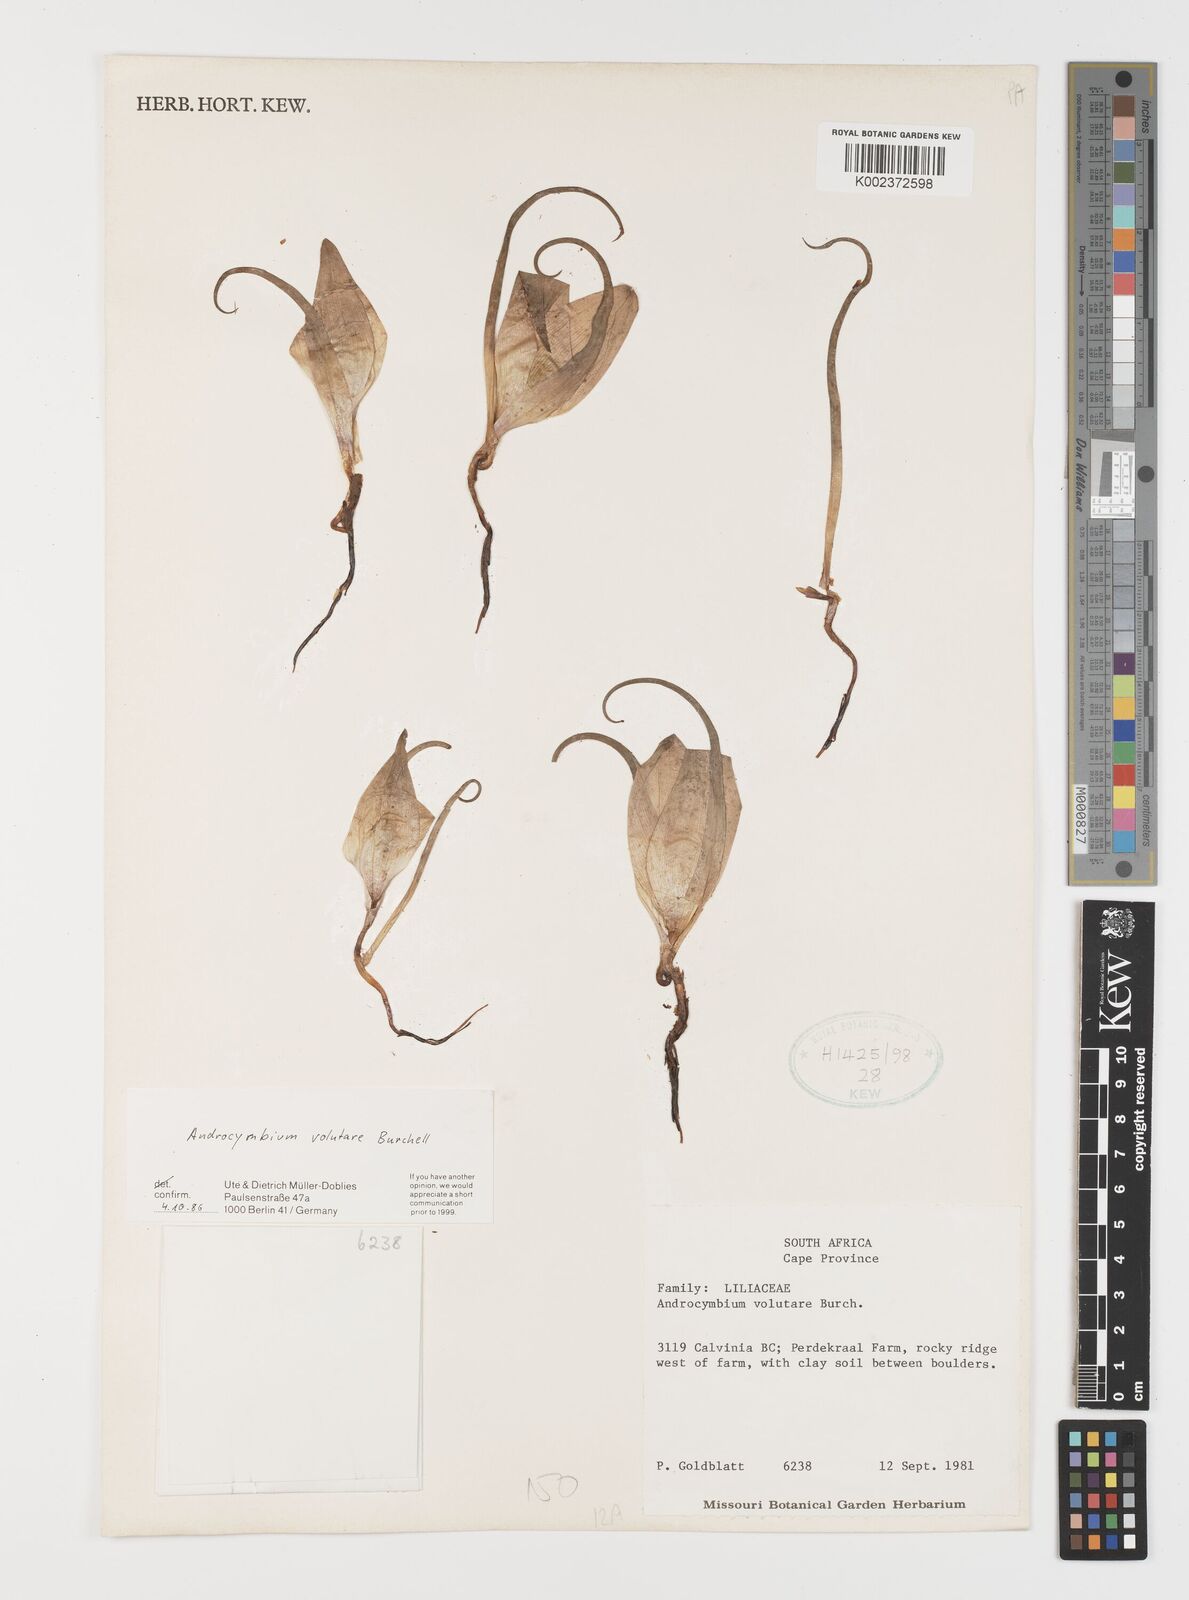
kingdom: Plantae
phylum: Tracheophyta
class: Liliopsida
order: Liliales
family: Colchicaceae
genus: Colchicum
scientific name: Colchicum volutare
